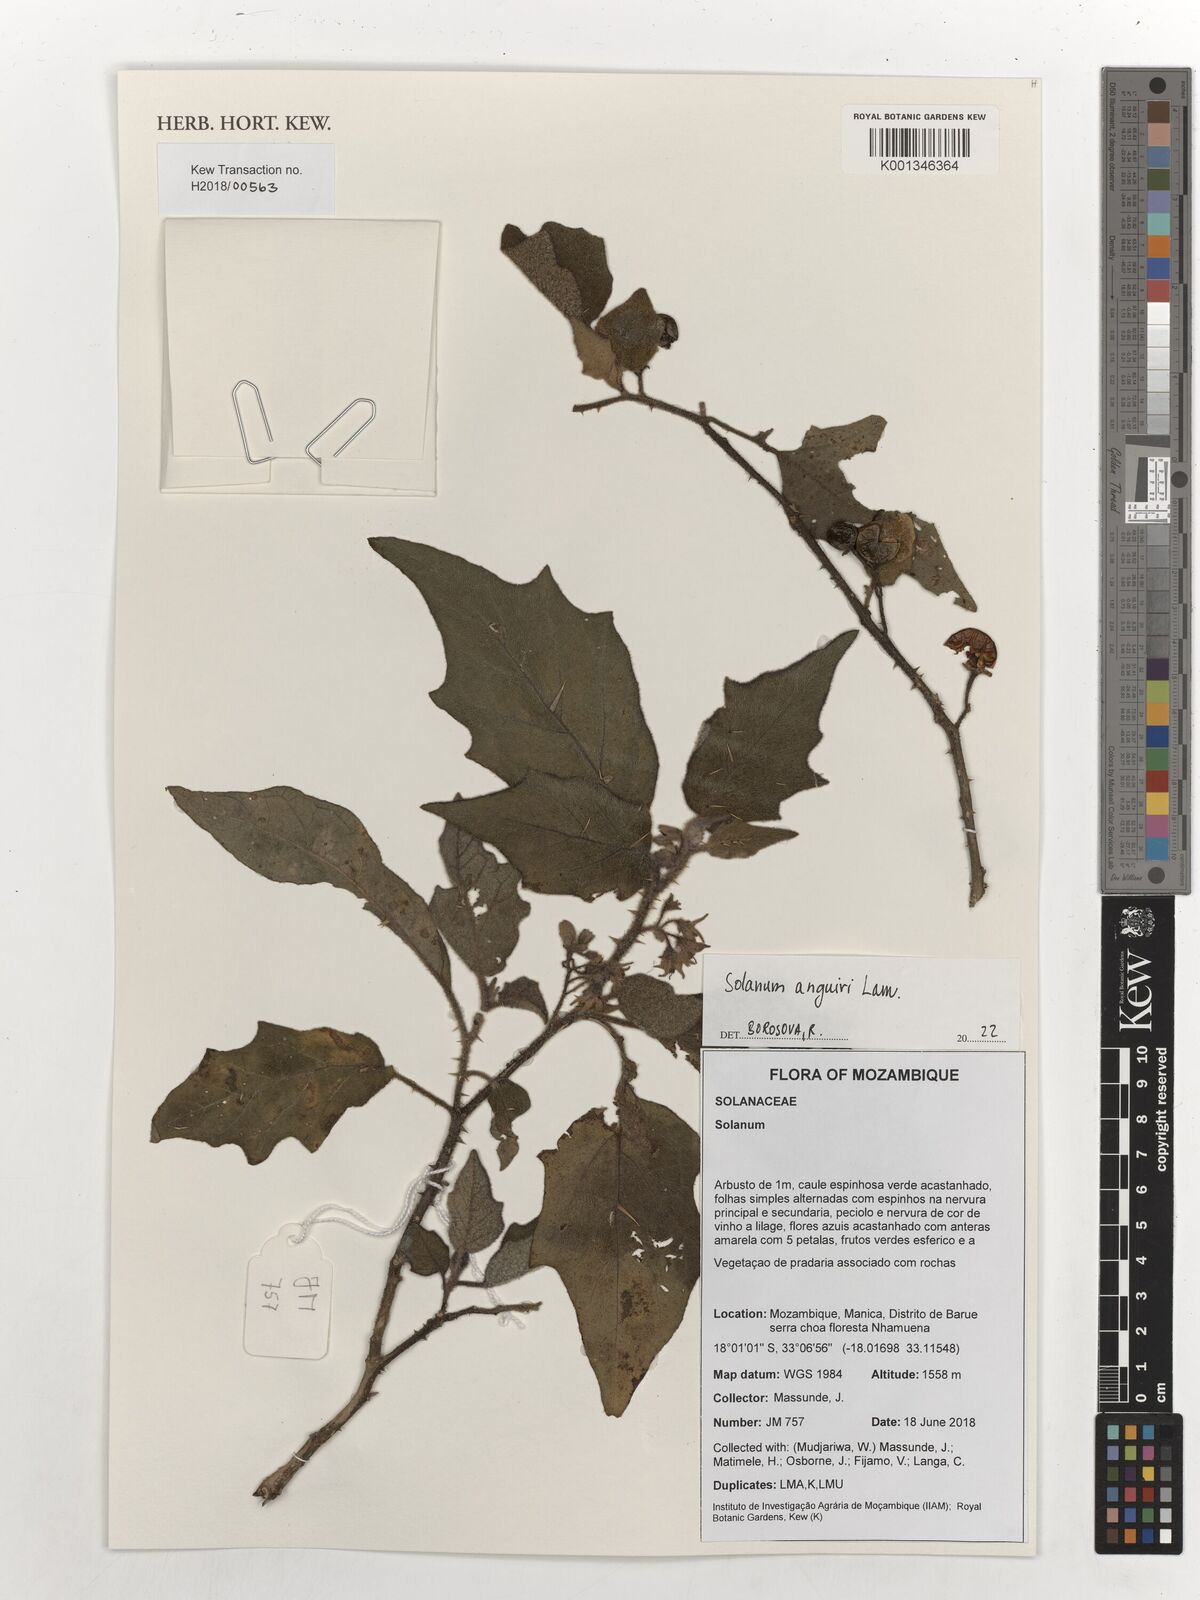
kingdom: Plantae
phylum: Tracheophyta
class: Magnoliopsida
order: Solanales
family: Solanaceae
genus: Solanum
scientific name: Solanum anguivi
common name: Forest bitterberry
